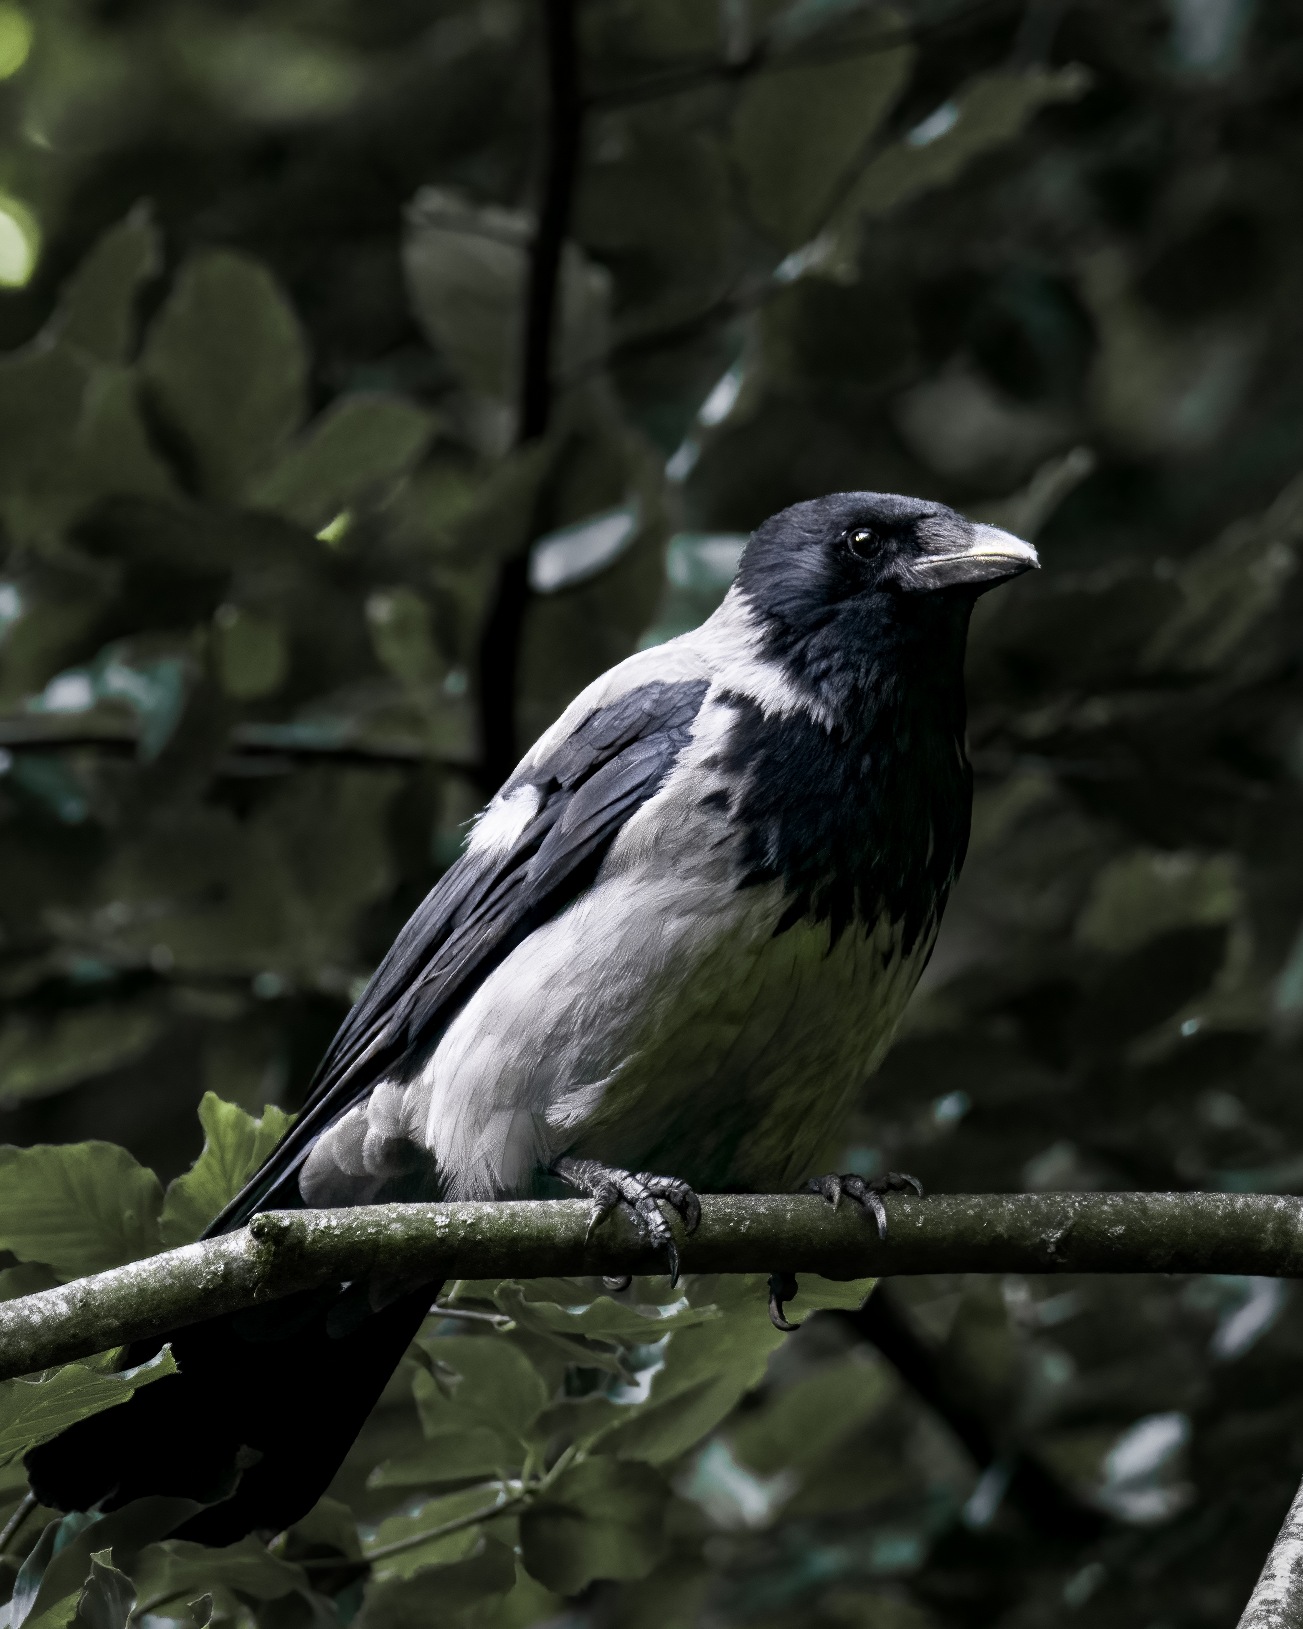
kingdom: Animalia
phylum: Chordata
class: Aves
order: Passeriformes
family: Corvidae
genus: Corvus
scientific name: Corvus cornix
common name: Gråkrage
